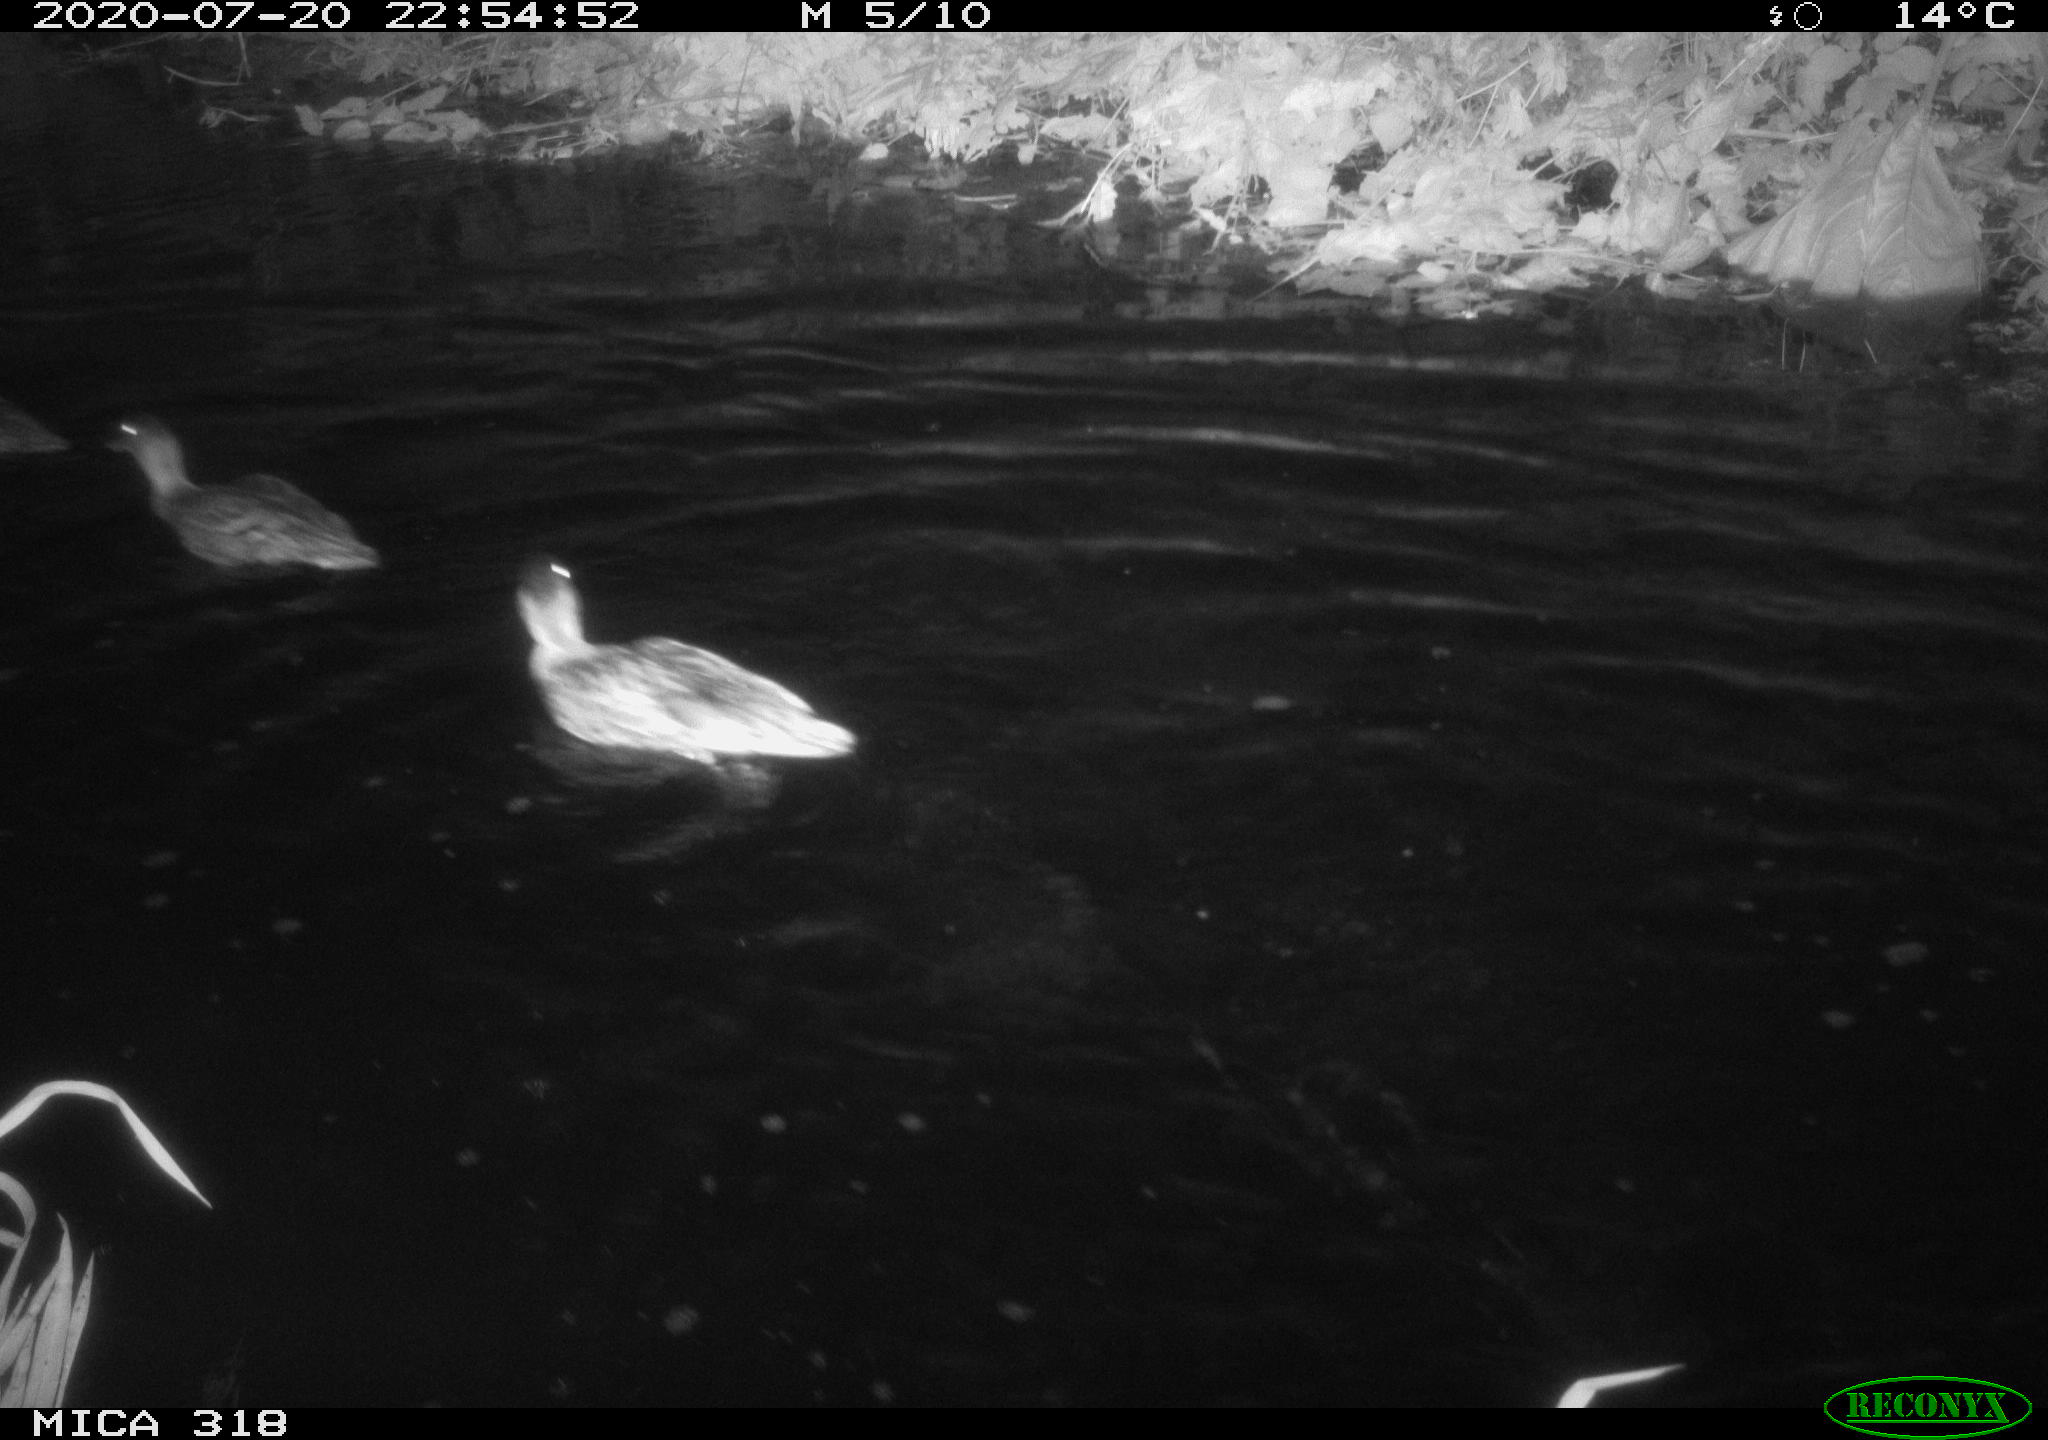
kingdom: Animalia
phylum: Chordata
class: Aves
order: Anseriformes
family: Anatidae
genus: Anas
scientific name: Anas platyrhynchos
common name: Mallard
